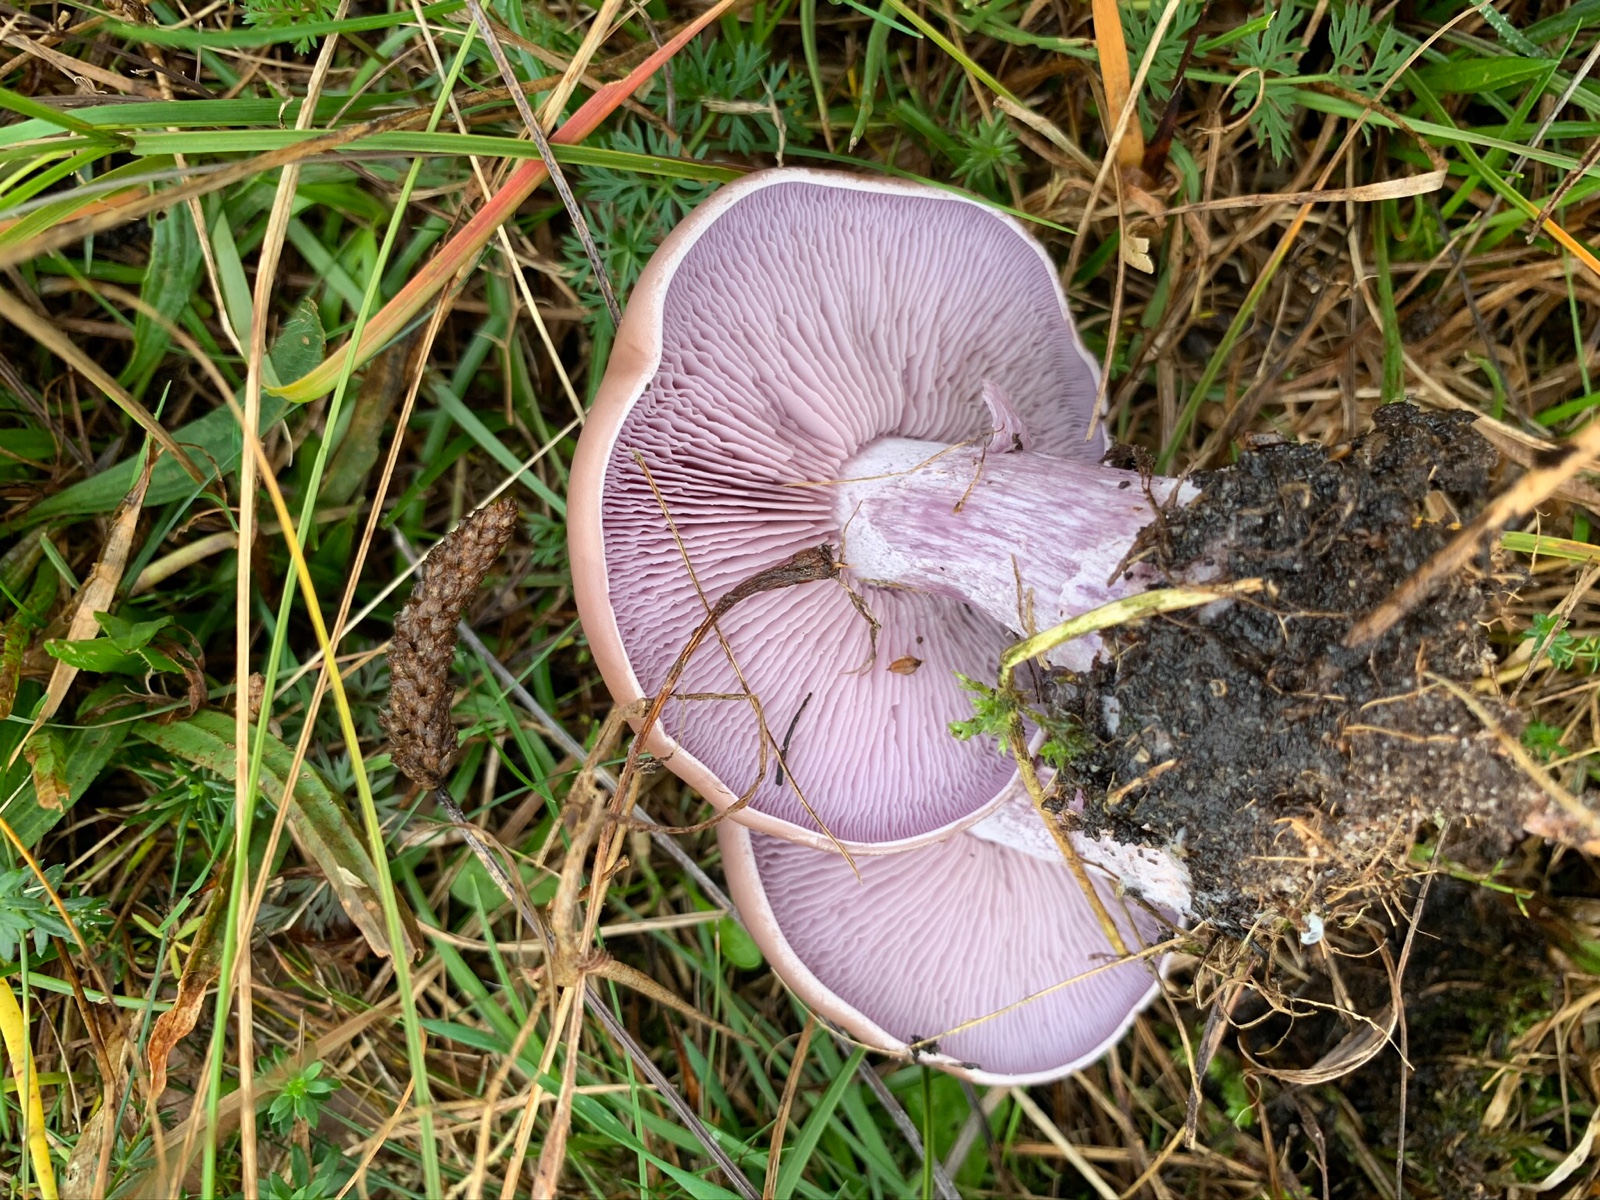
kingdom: Fungi
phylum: Basidiomycota
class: Agaricomycetes
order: Agaricales
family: Tricholomataceae
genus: Lepista
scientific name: Lepista nuda
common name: violet hekseringshat
